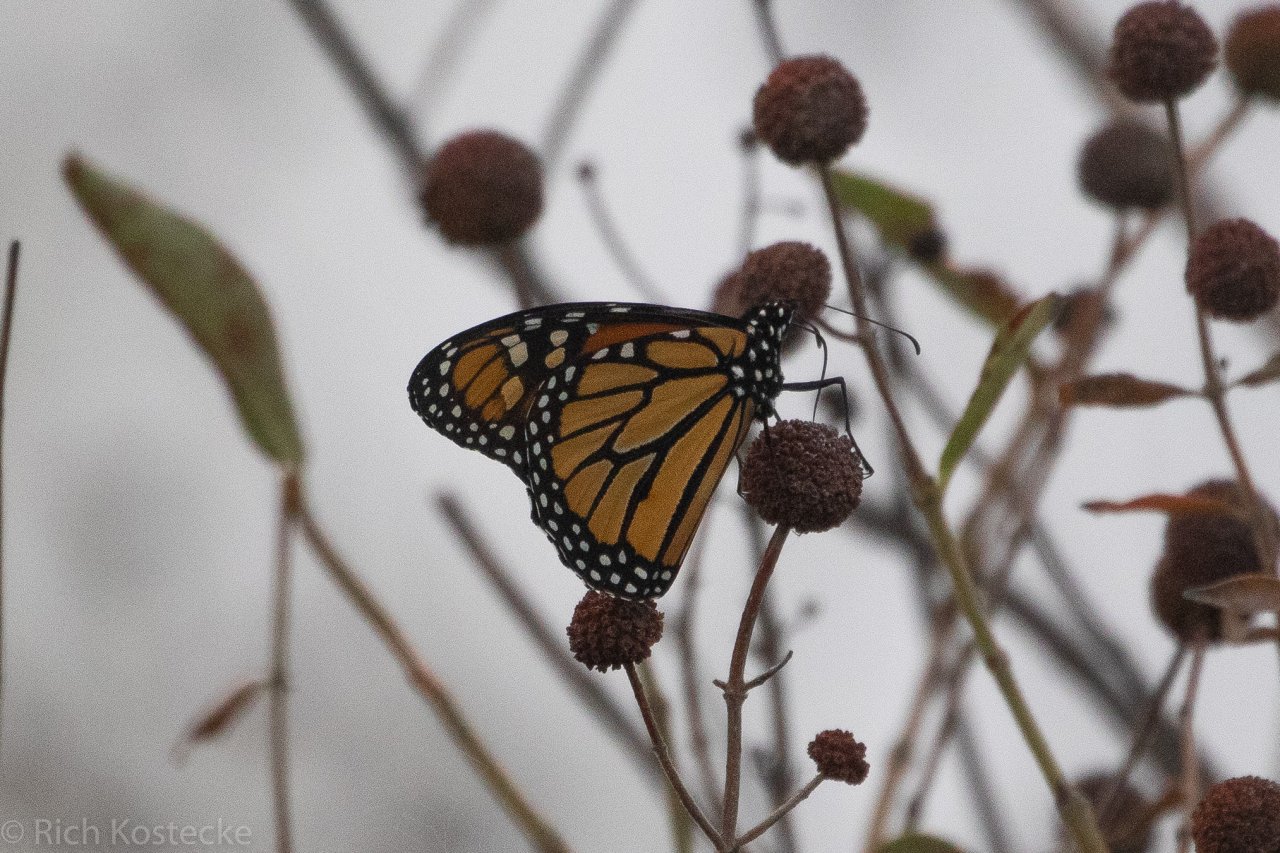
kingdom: Animalia
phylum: Arthropoda
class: Insecta
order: Lepidoptera
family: Nymphalidae
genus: Danaus
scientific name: Danaus plexippus
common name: Monarch
